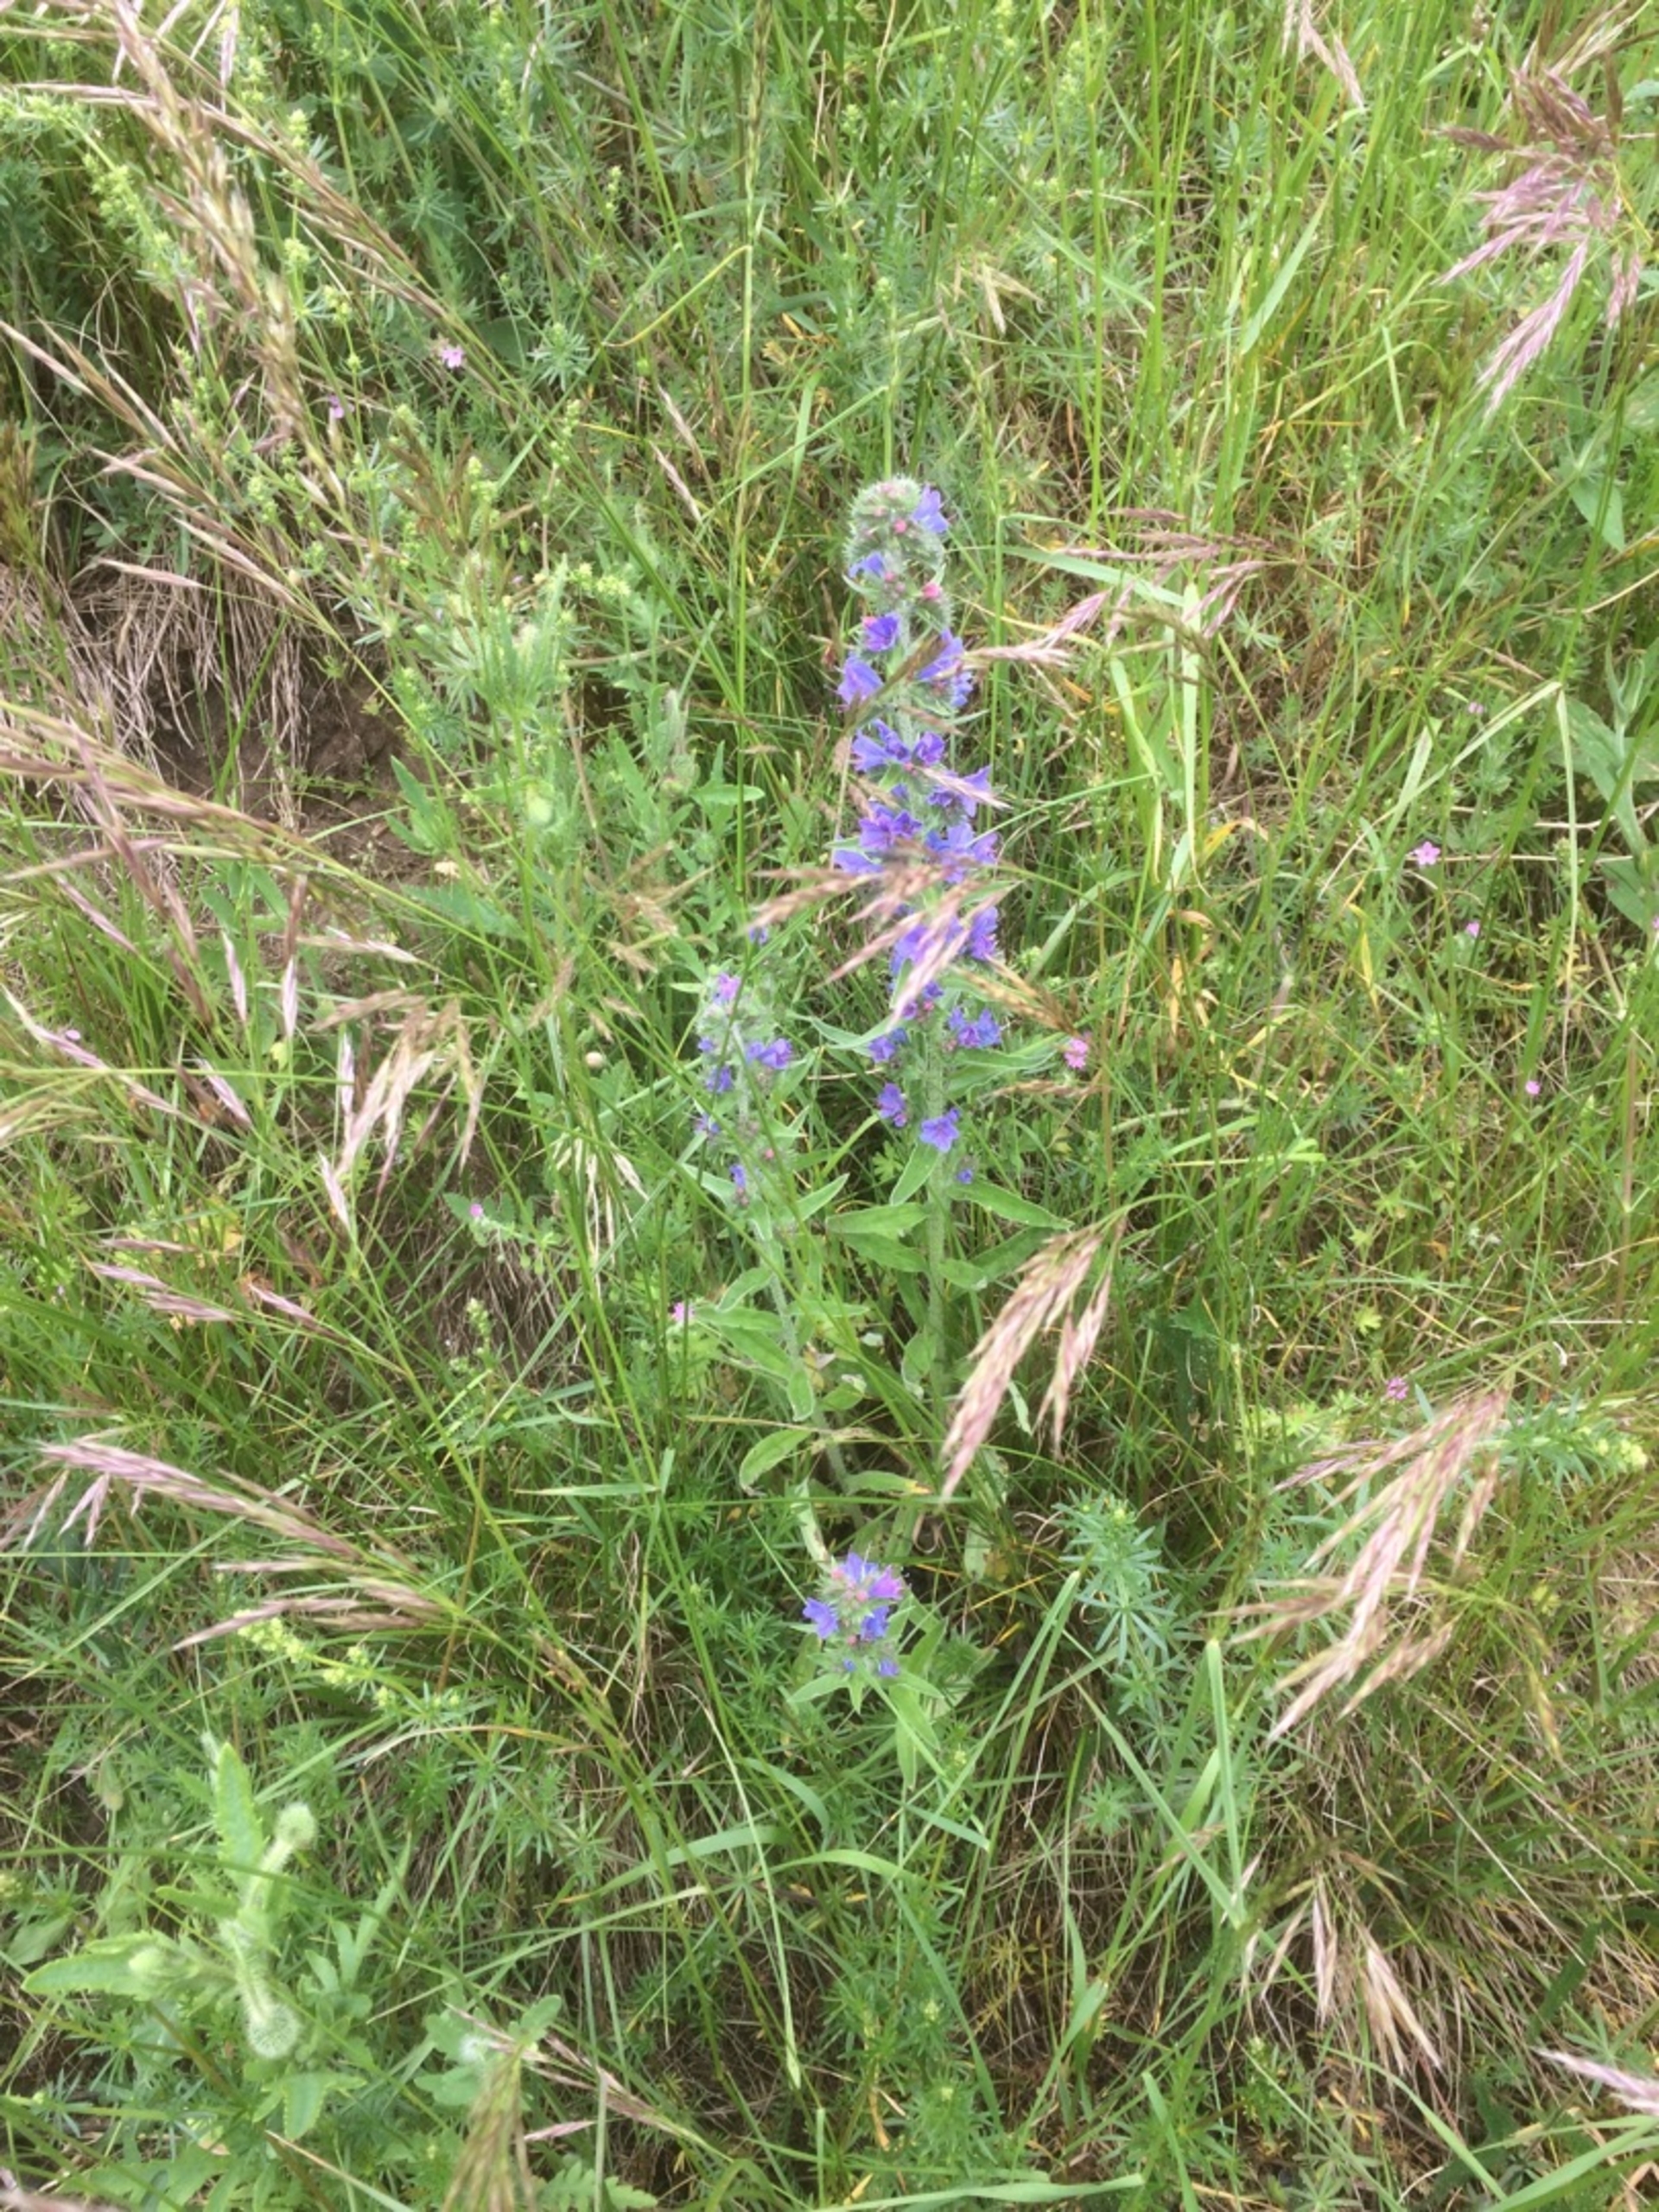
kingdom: Plantae
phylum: Tracheophyta
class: Magnoliopsida
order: Boraginales
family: Boraginaceae
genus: Echium
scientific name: Echium vulgare
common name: Slangehoved
